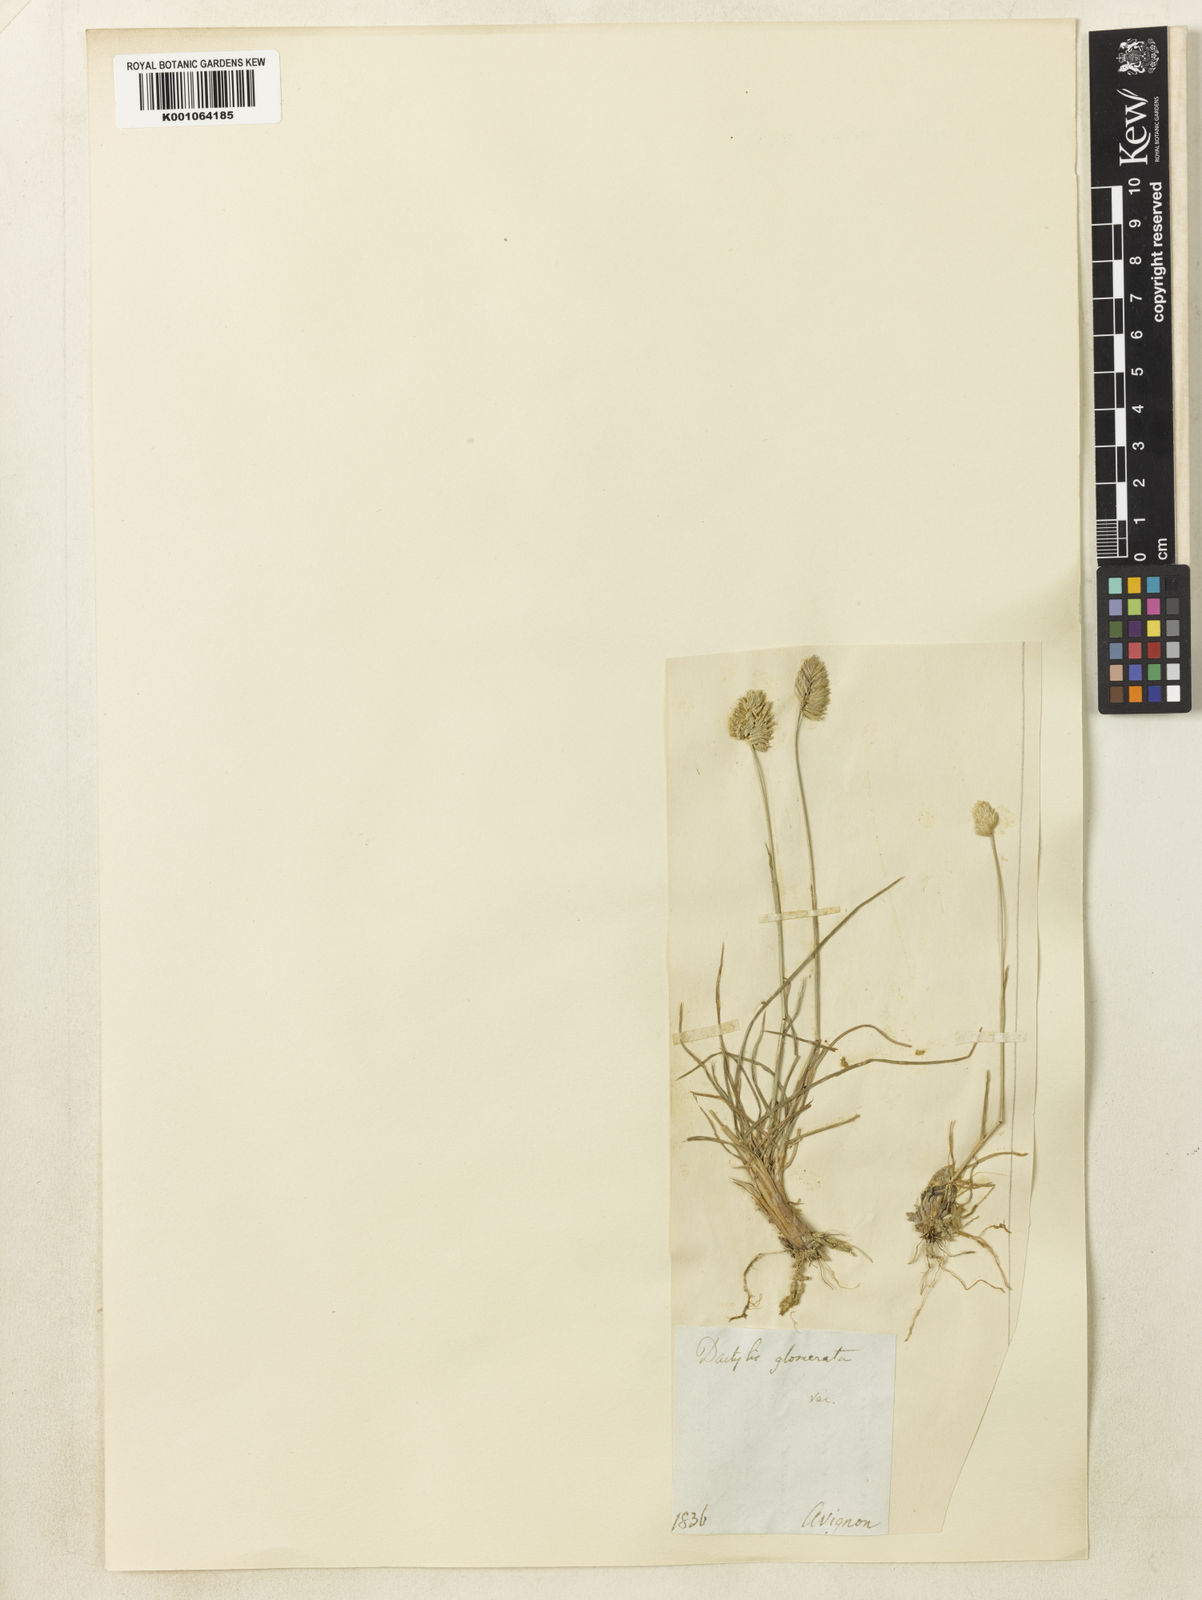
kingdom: Plantae
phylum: Tracheophyta
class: Liliopsida
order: Poales
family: Poaceae
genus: Dactylis
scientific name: Dactylis glomerata
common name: Orchardgrass
